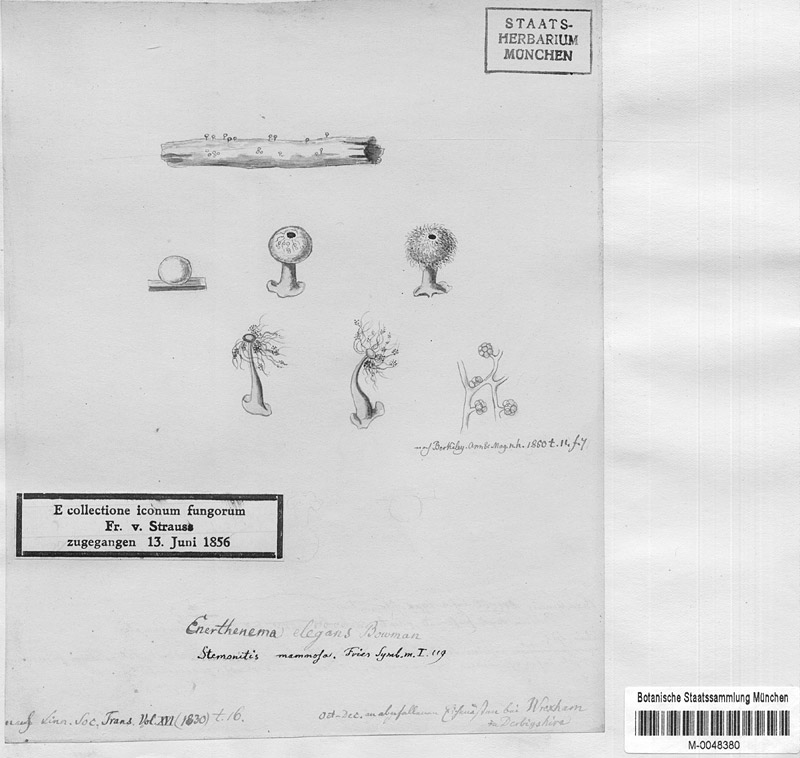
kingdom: Protozoa
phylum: Mycetozoa
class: Myxomycetes
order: Stemonitidales
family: Stemonitidaceae
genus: Enerthenema
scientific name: Enerthenema papillatum
